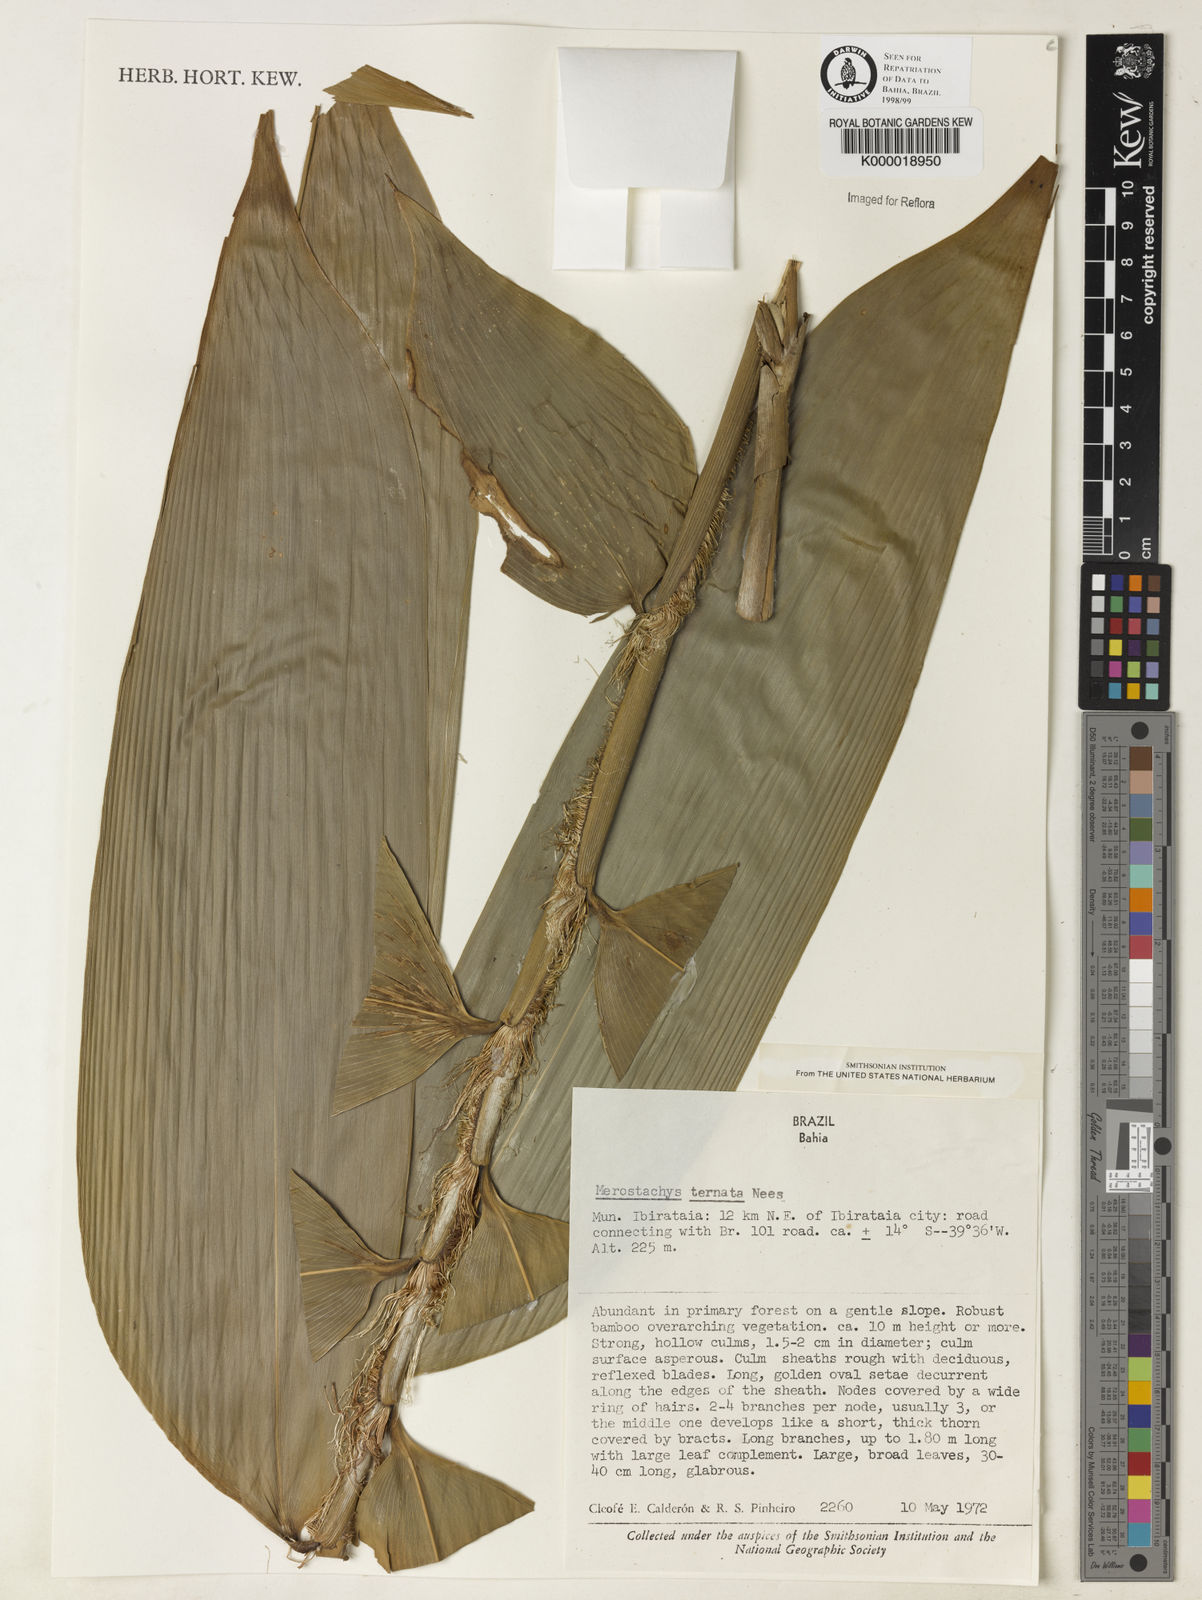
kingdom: Plantae
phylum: Tracheophyta
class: Liliopsida
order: Poales
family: Poaceae
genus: Merostachys
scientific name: Merostachys ternata
